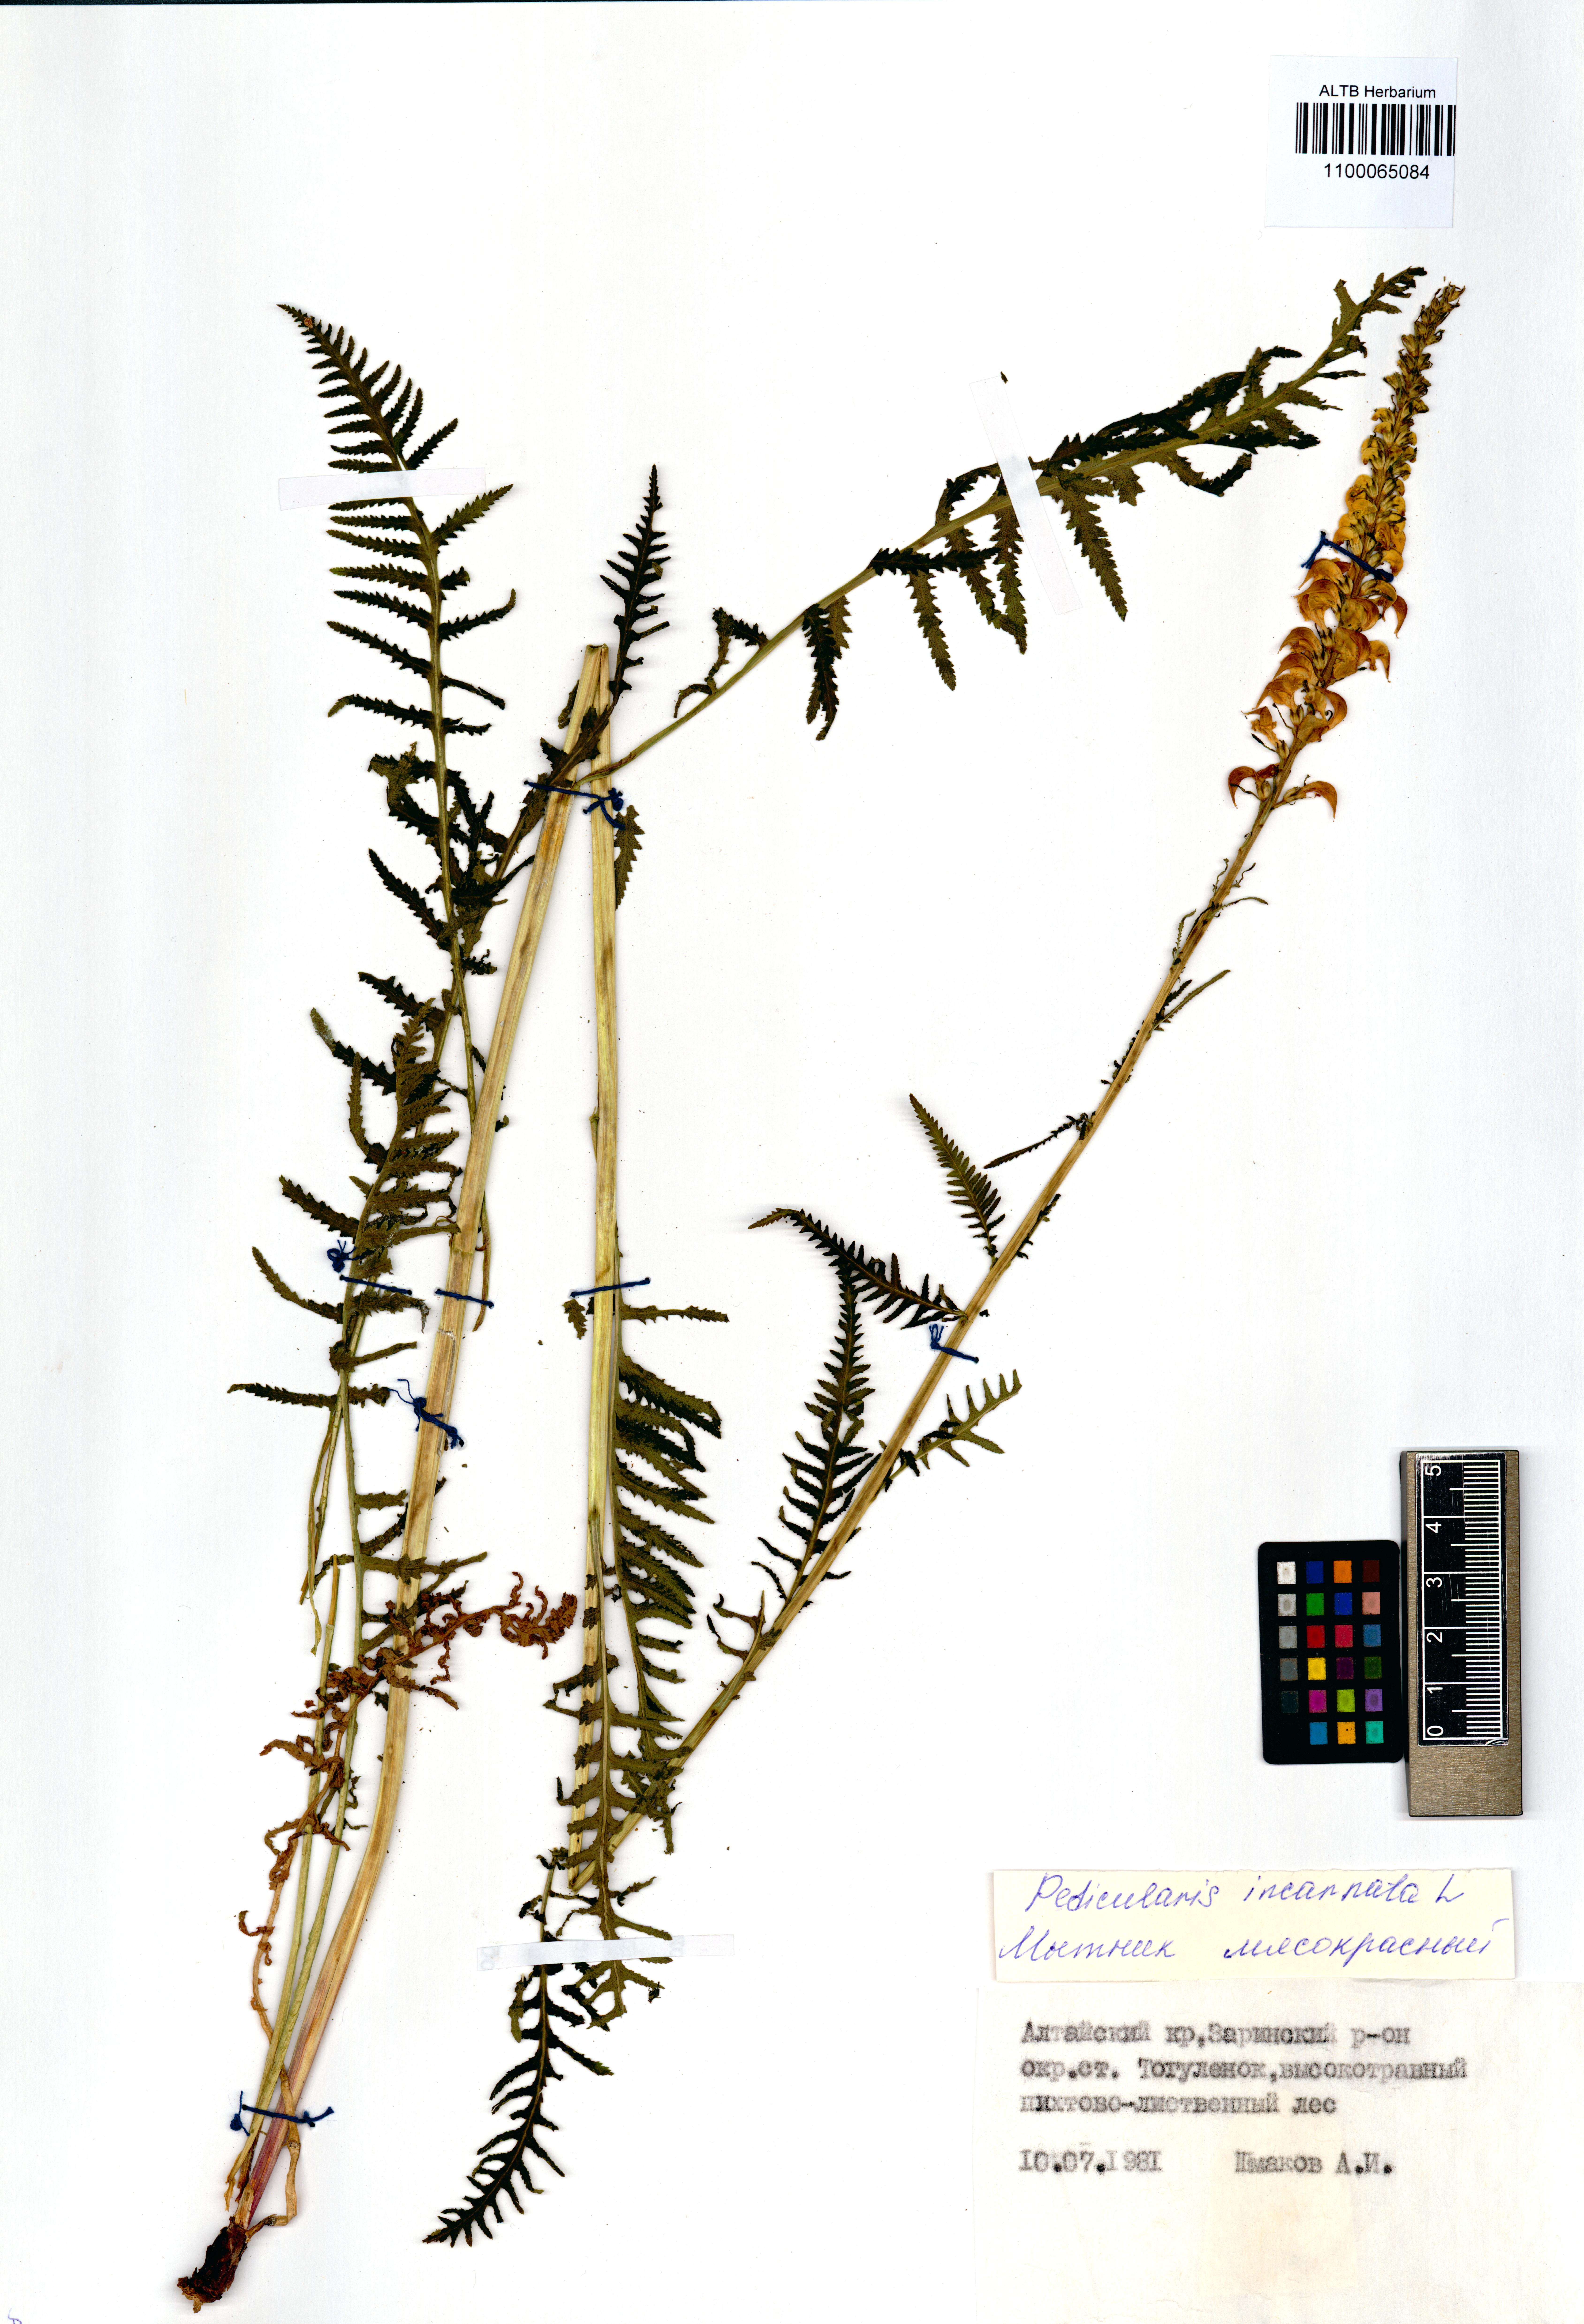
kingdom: Plantae
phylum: Tracheophyta
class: Magnoliopsida
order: Lamiales
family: Orobanchaceae
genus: Pedicularis
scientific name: Pedicularis incarnata
